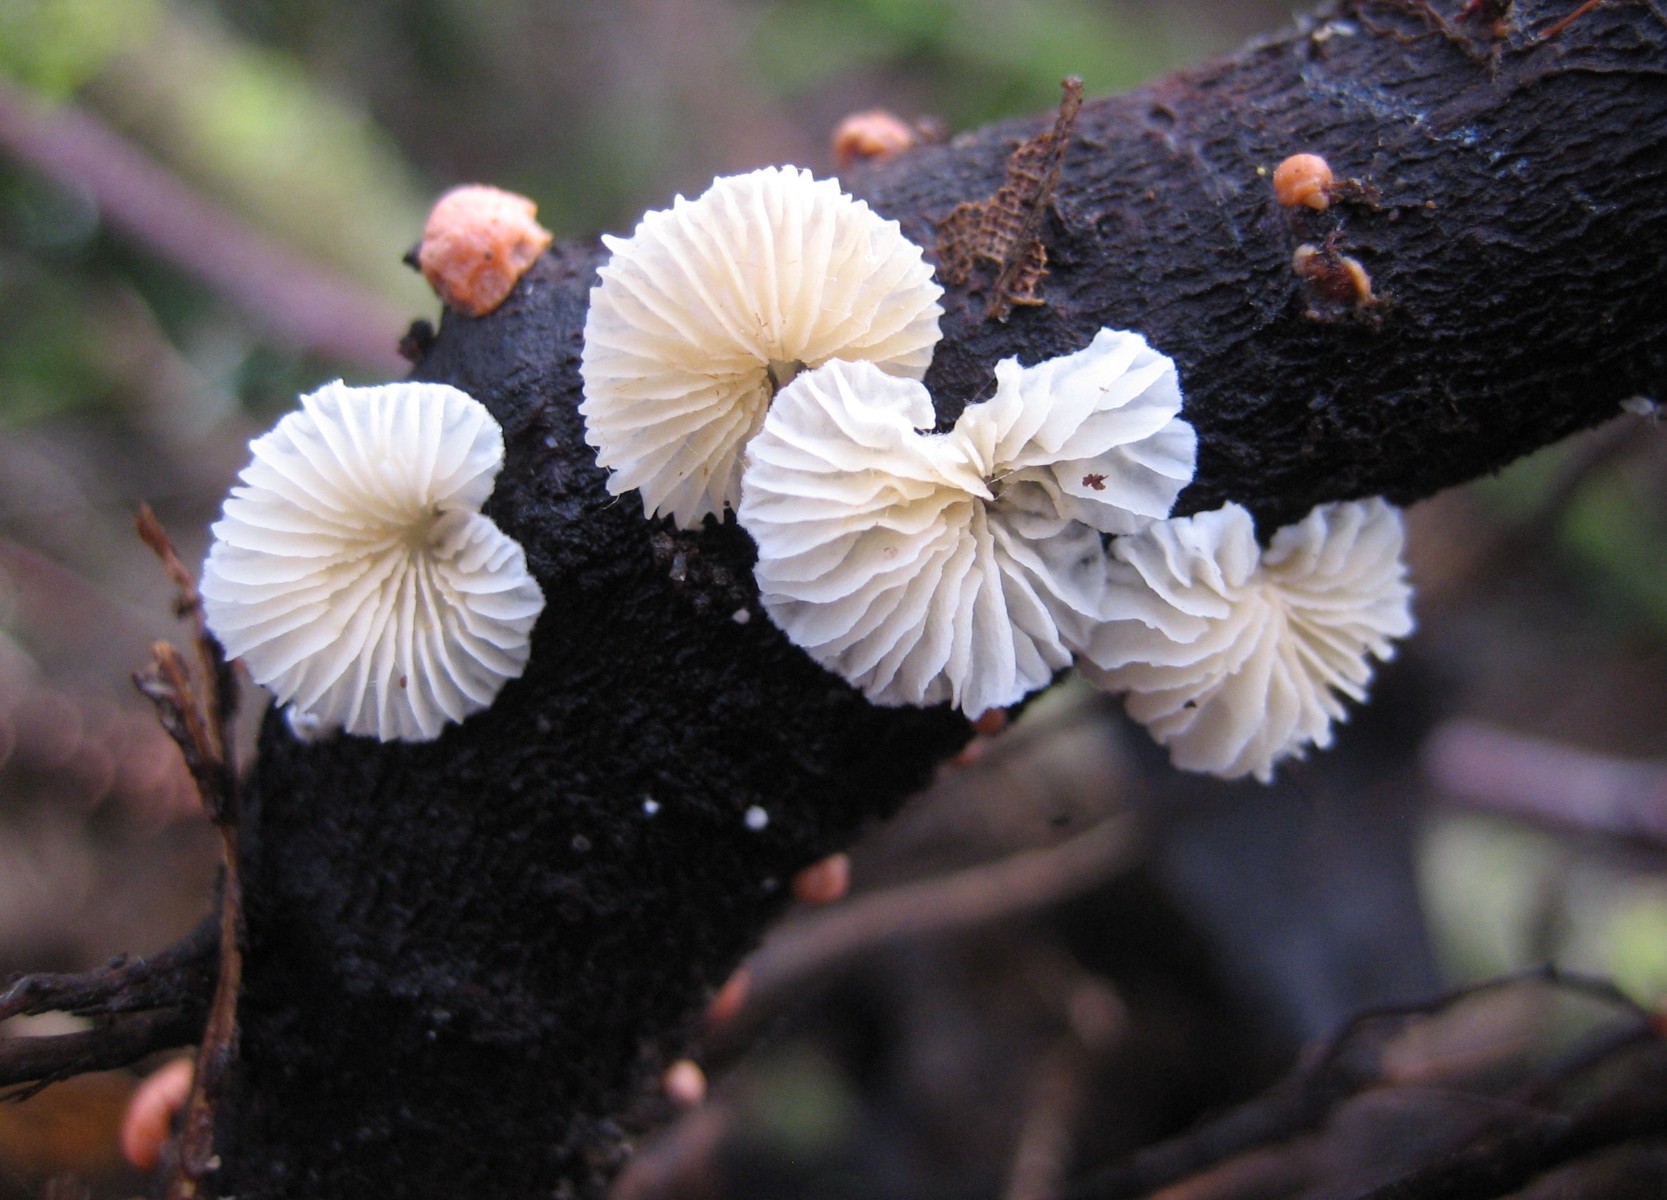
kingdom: Fungi
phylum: Basidiomycota
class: Agaricomycetes
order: Agaricales
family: Crepidotaceae
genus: Crepidotus
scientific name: Crepidotus
